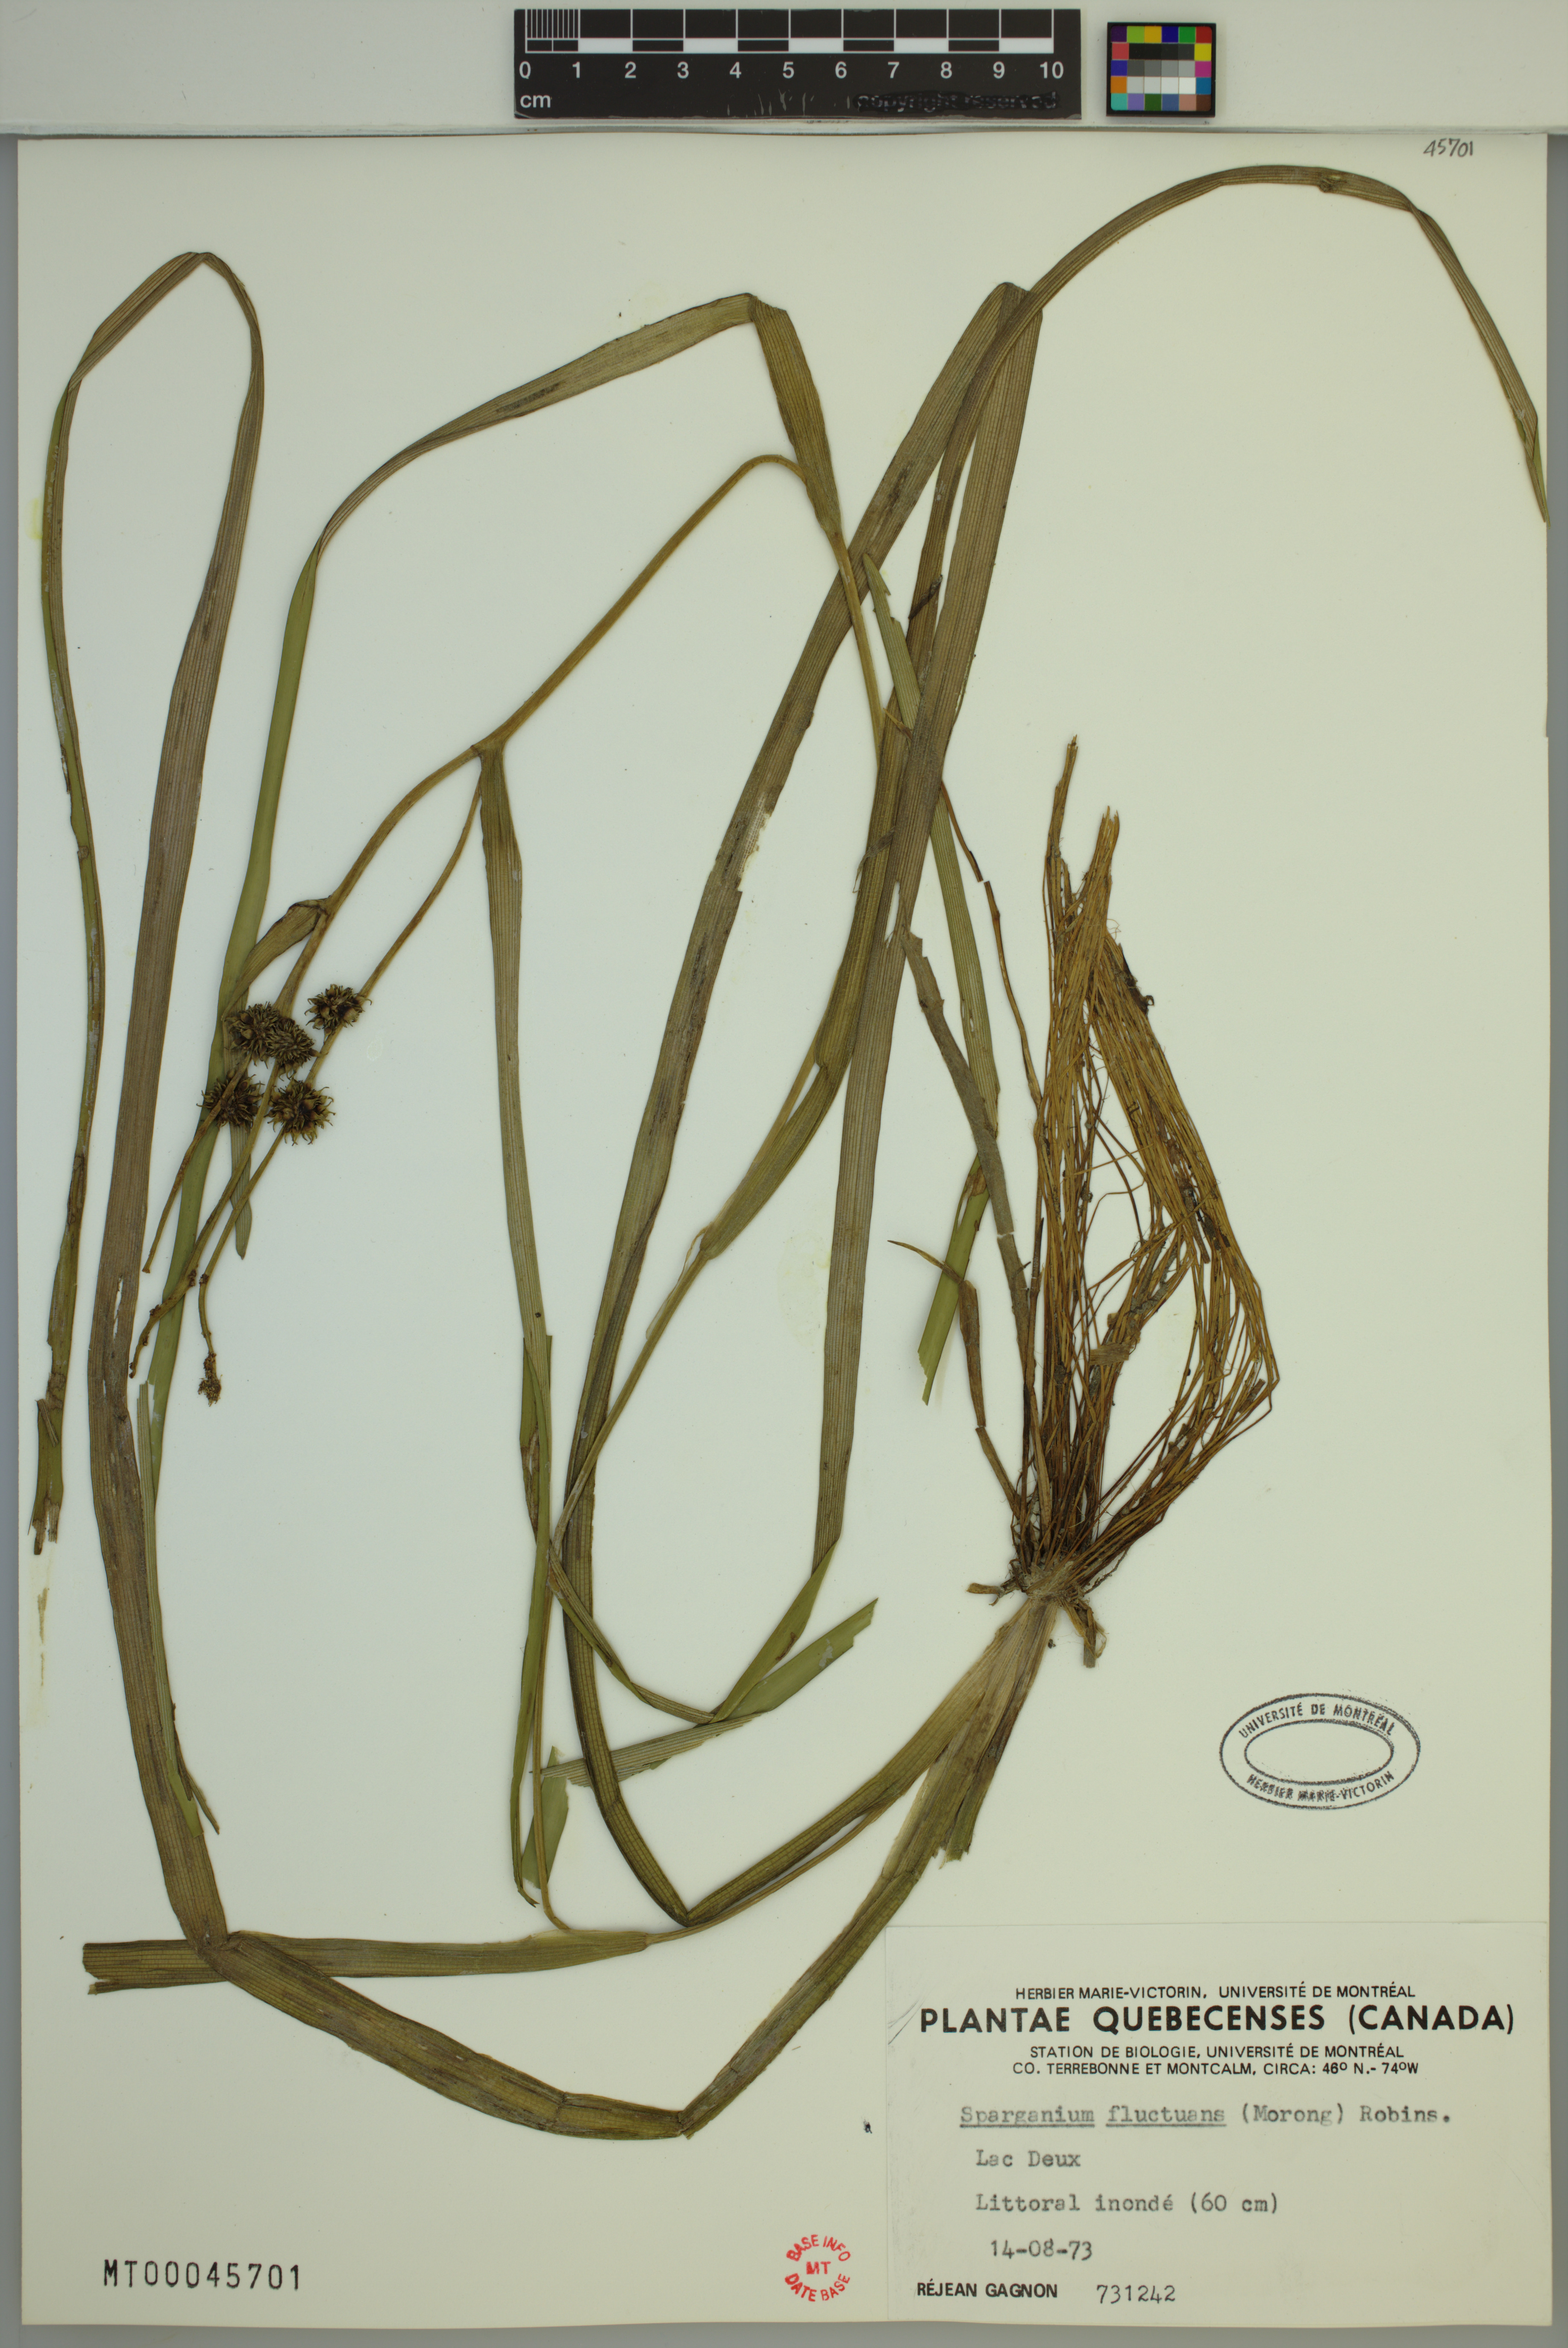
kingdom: Plantae
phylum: Tracheophyta
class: Liliopsida
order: Poales
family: Typhaceae
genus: Sparganium
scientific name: Sparganium fluctuans
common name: Floating burreed
